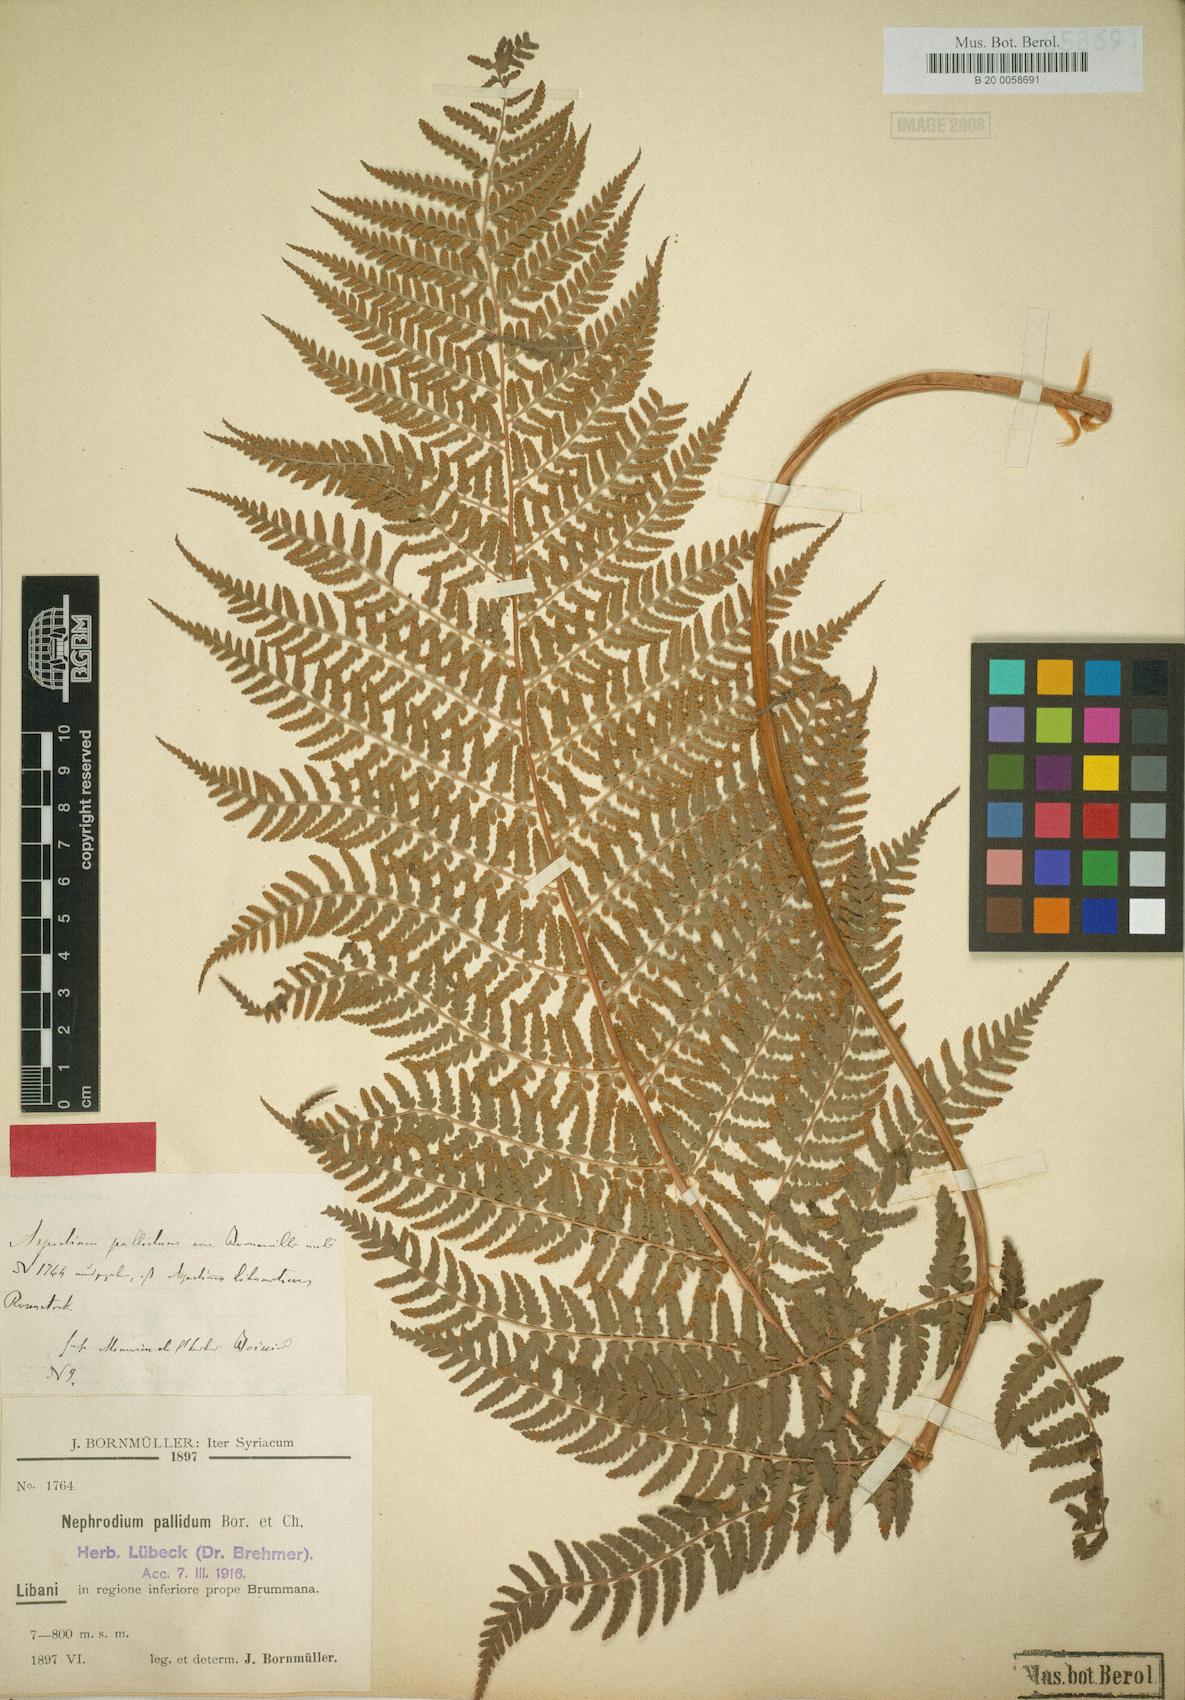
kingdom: Plantae
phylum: Tracheophyta
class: Polypodiopsida
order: Polypodiales
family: Dryopteridaceae
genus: Dryopteris
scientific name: Dryopteris pallida
